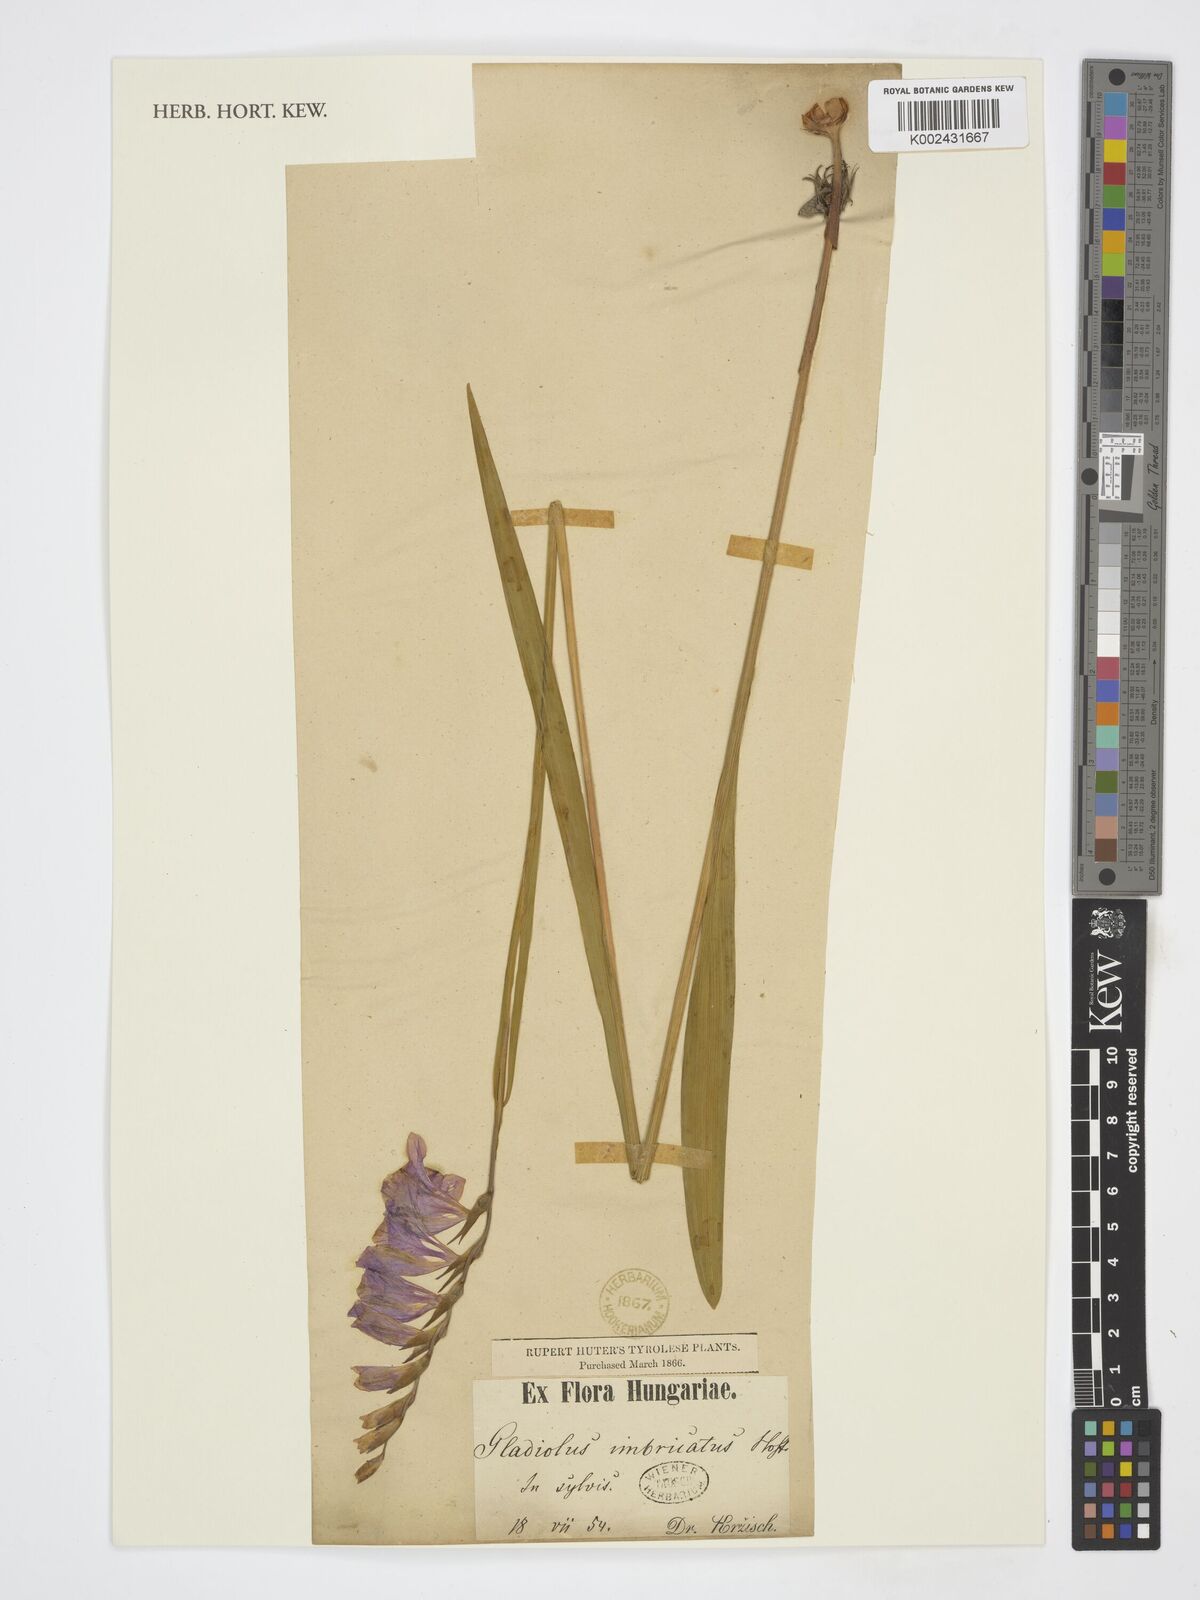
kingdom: Plantae
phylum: Tracheophyta
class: Liliopsida
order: Asparagales
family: Iridaceae
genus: Gladiolus
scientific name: Gladiolus imbricatus
